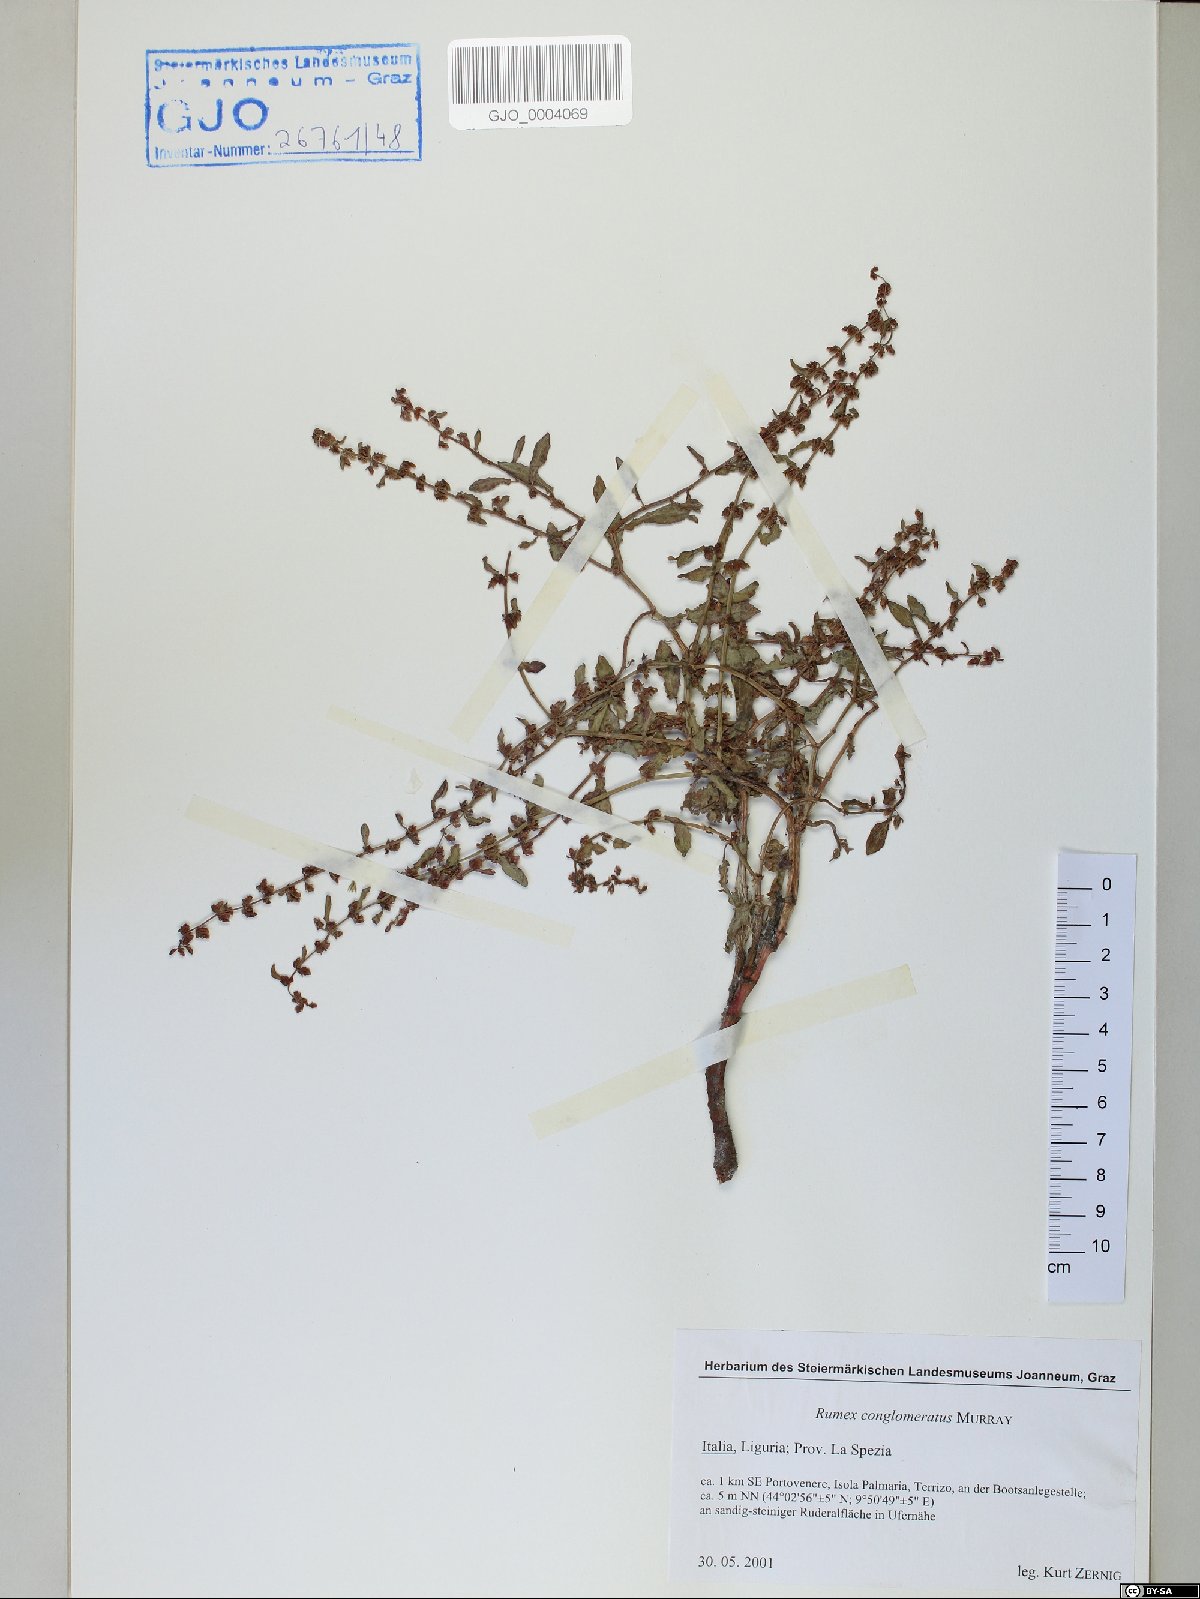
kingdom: Plantae
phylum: Tracheophyta
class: Magnoliopsida
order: Caryophyllales
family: Polygonaceae
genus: Rumex
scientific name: Rumex conglomeratus
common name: Clustered dock
